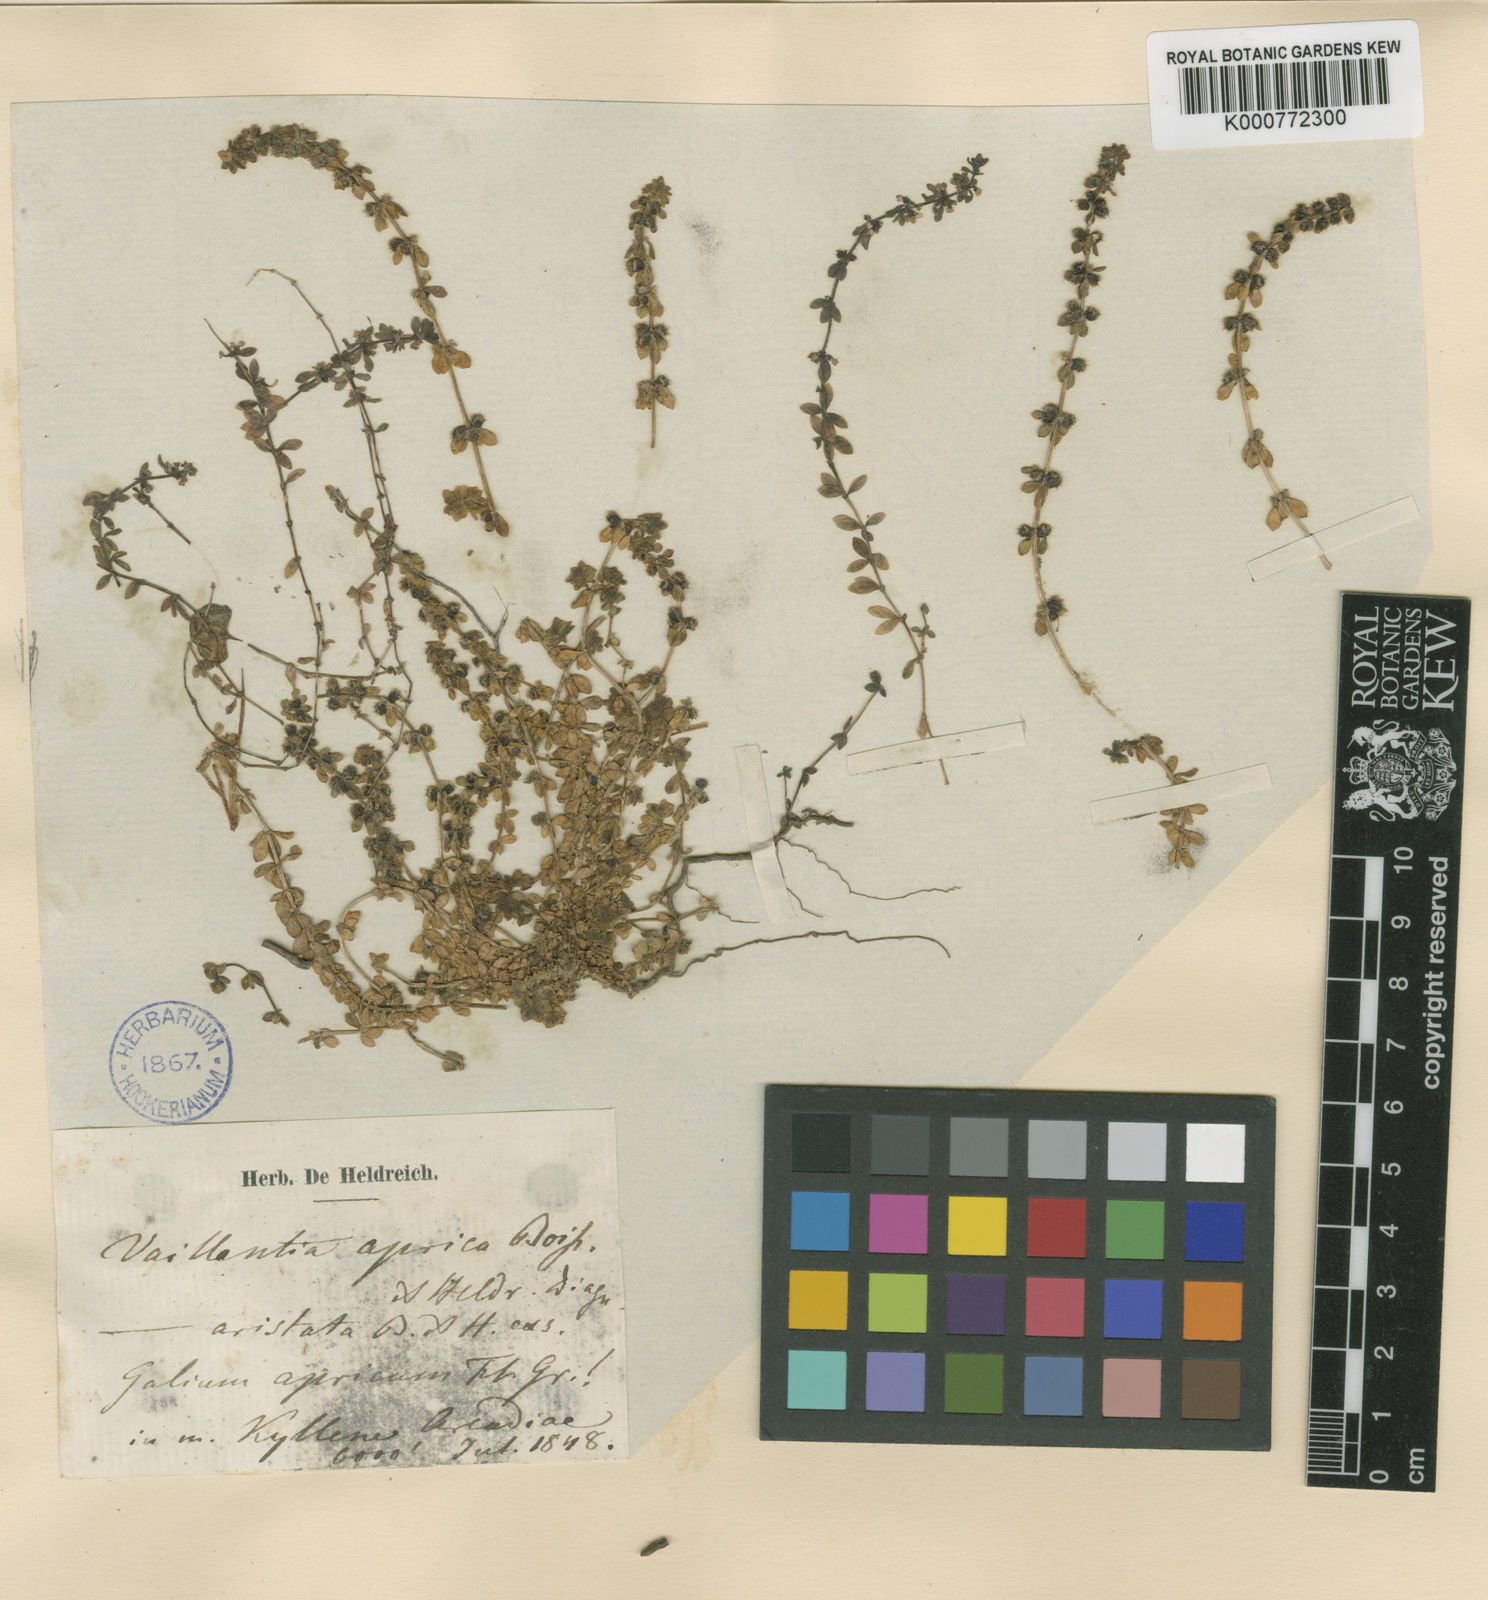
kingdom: Plantae
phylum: Tracheophyta
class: Magnoliopsida
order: Gentianales
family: Rubiaceae
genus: Valantia
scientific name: Valantia
